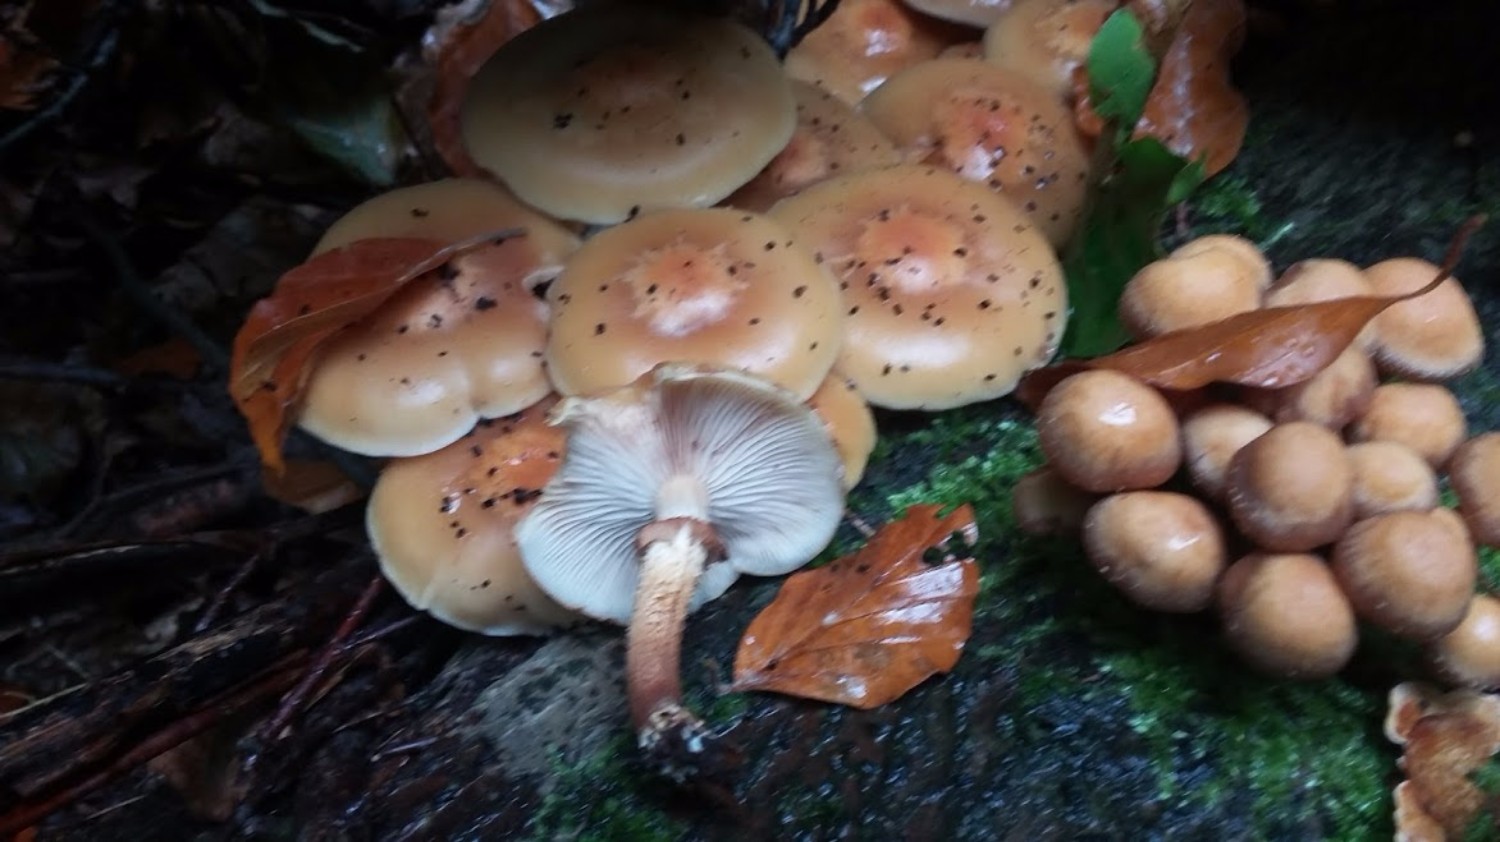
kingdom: Fungi
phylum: Basidiomycota
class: Agaricomycetes
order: Agaricales
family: Strophariaceae
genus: Kuehneromyces
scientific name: Kuehneromyces mutabilis
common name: foranderlig skælhat
